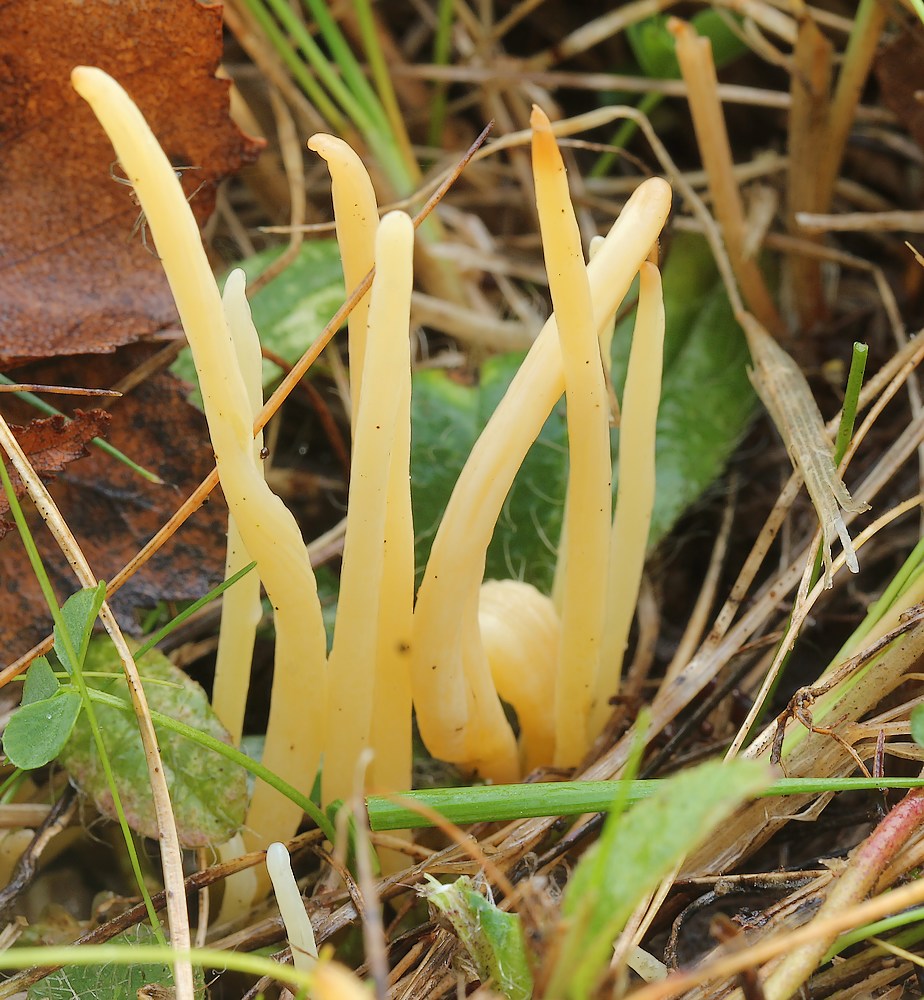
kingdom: Fungi
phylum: Basidiomycota
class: Agaricomycetes
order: Agaricales
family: Clavariaceae
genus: Clavaria
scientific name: Clavaria flavipes
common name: strågul køllesvamp
